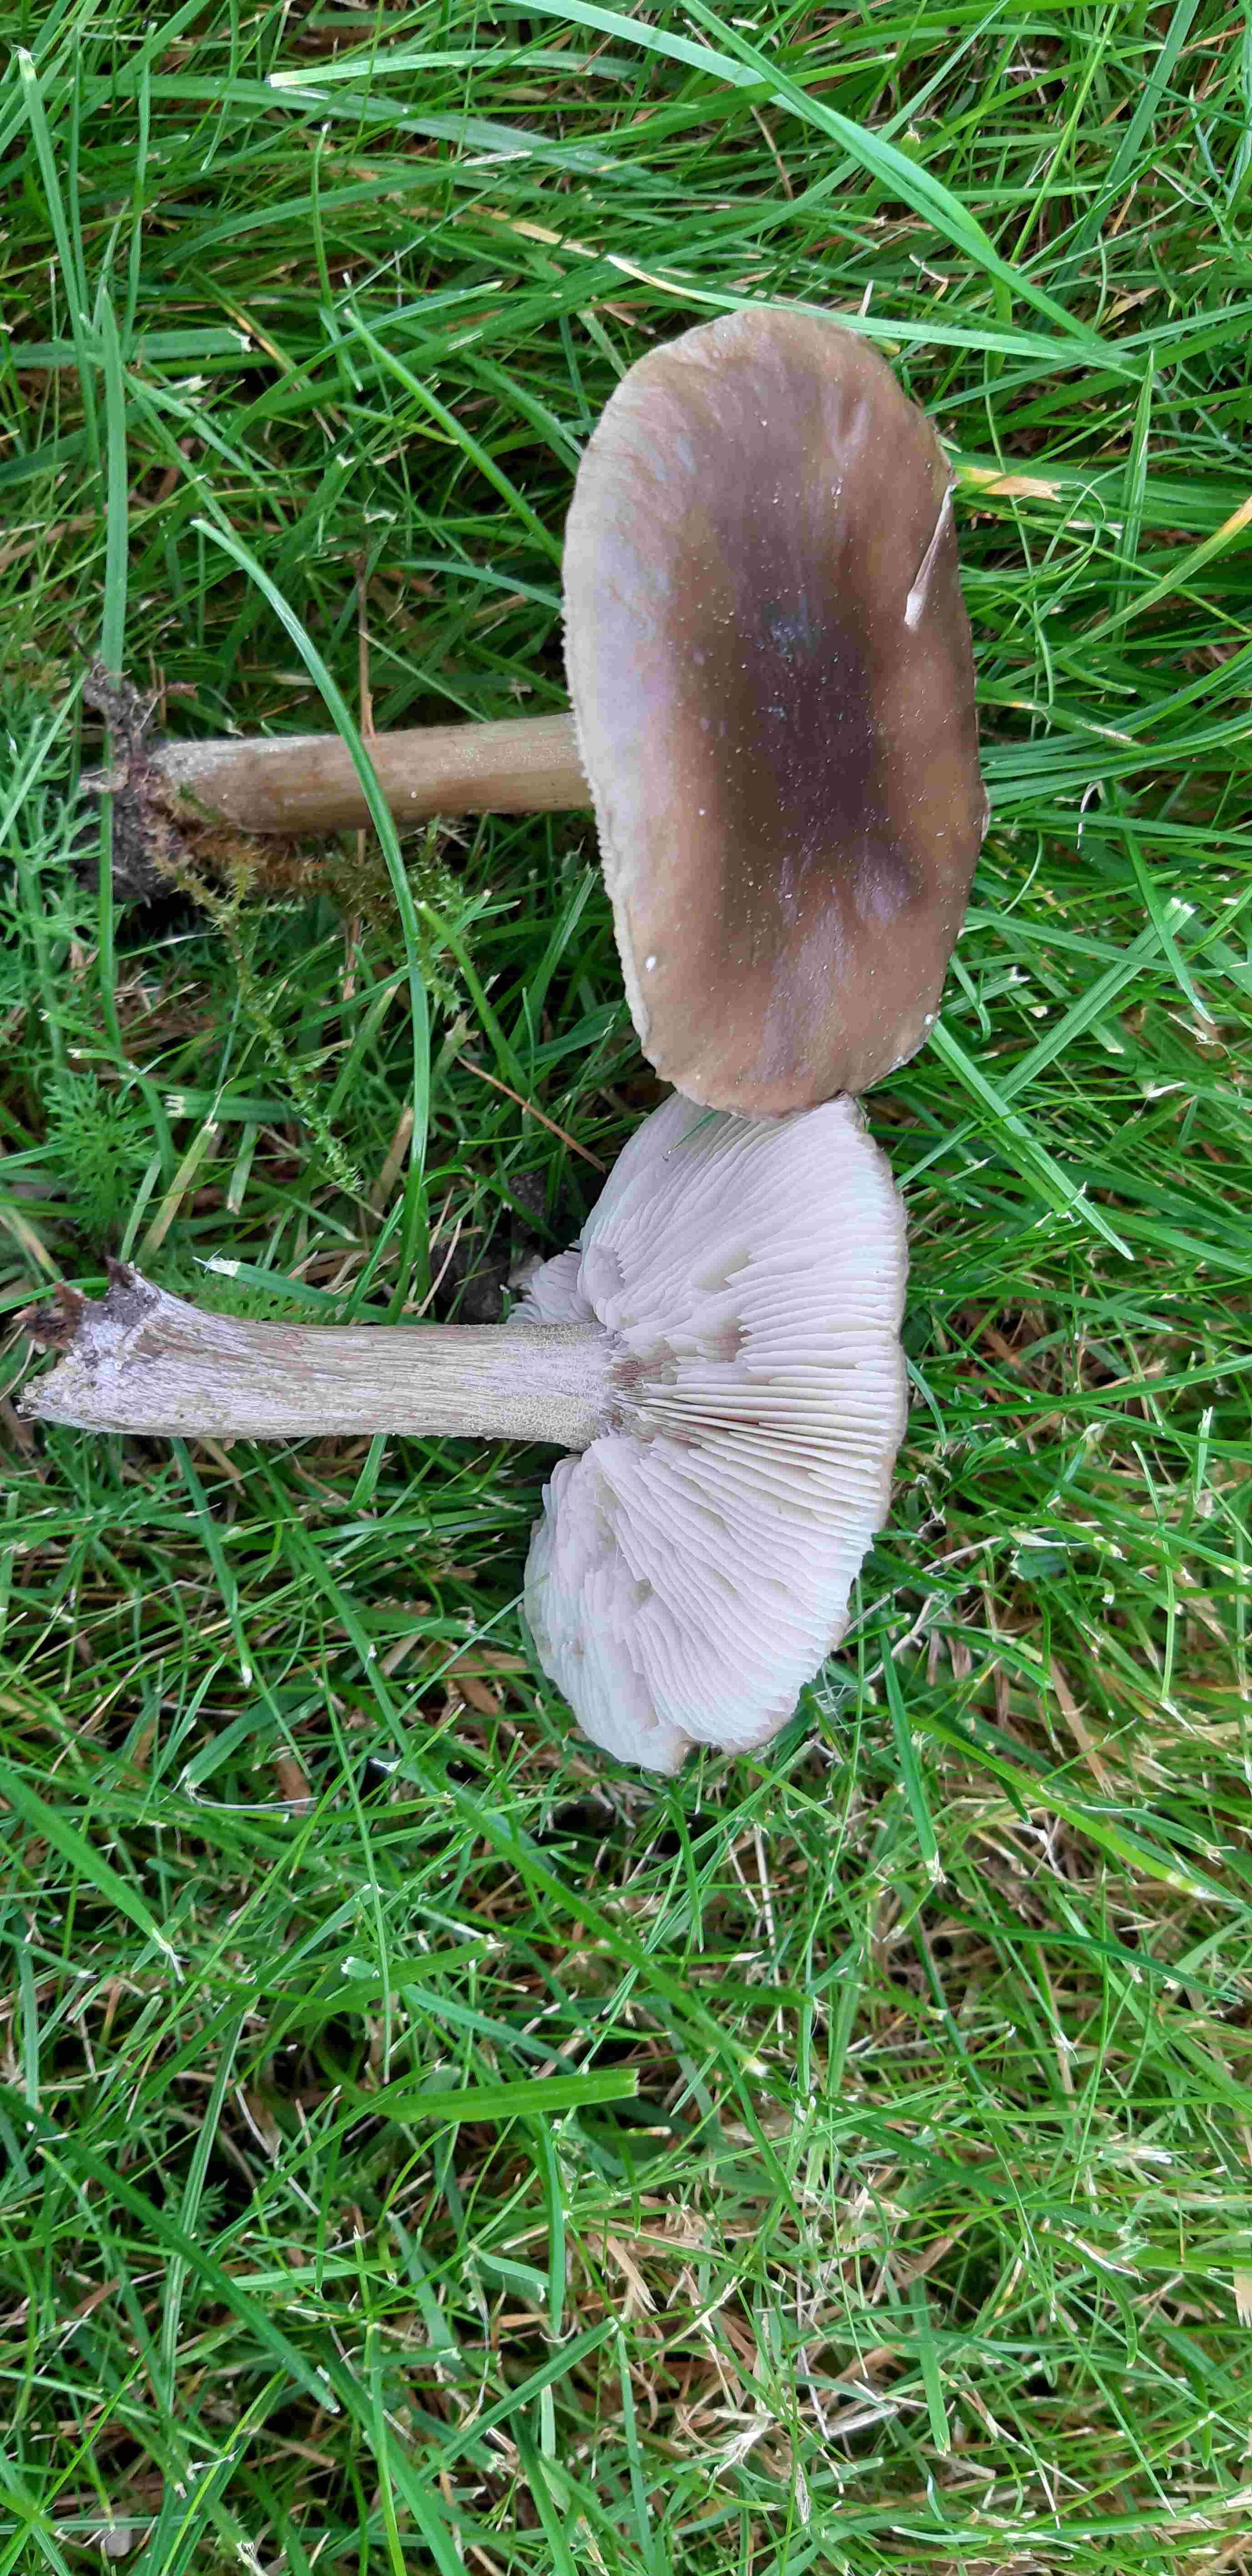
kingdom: Fungi
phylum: Basidiomycota
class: Agaricomycetes
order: Agaricales
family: Tricholomataceae
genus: Melanoleuca
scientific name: Melanoleuca
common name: munkehat
